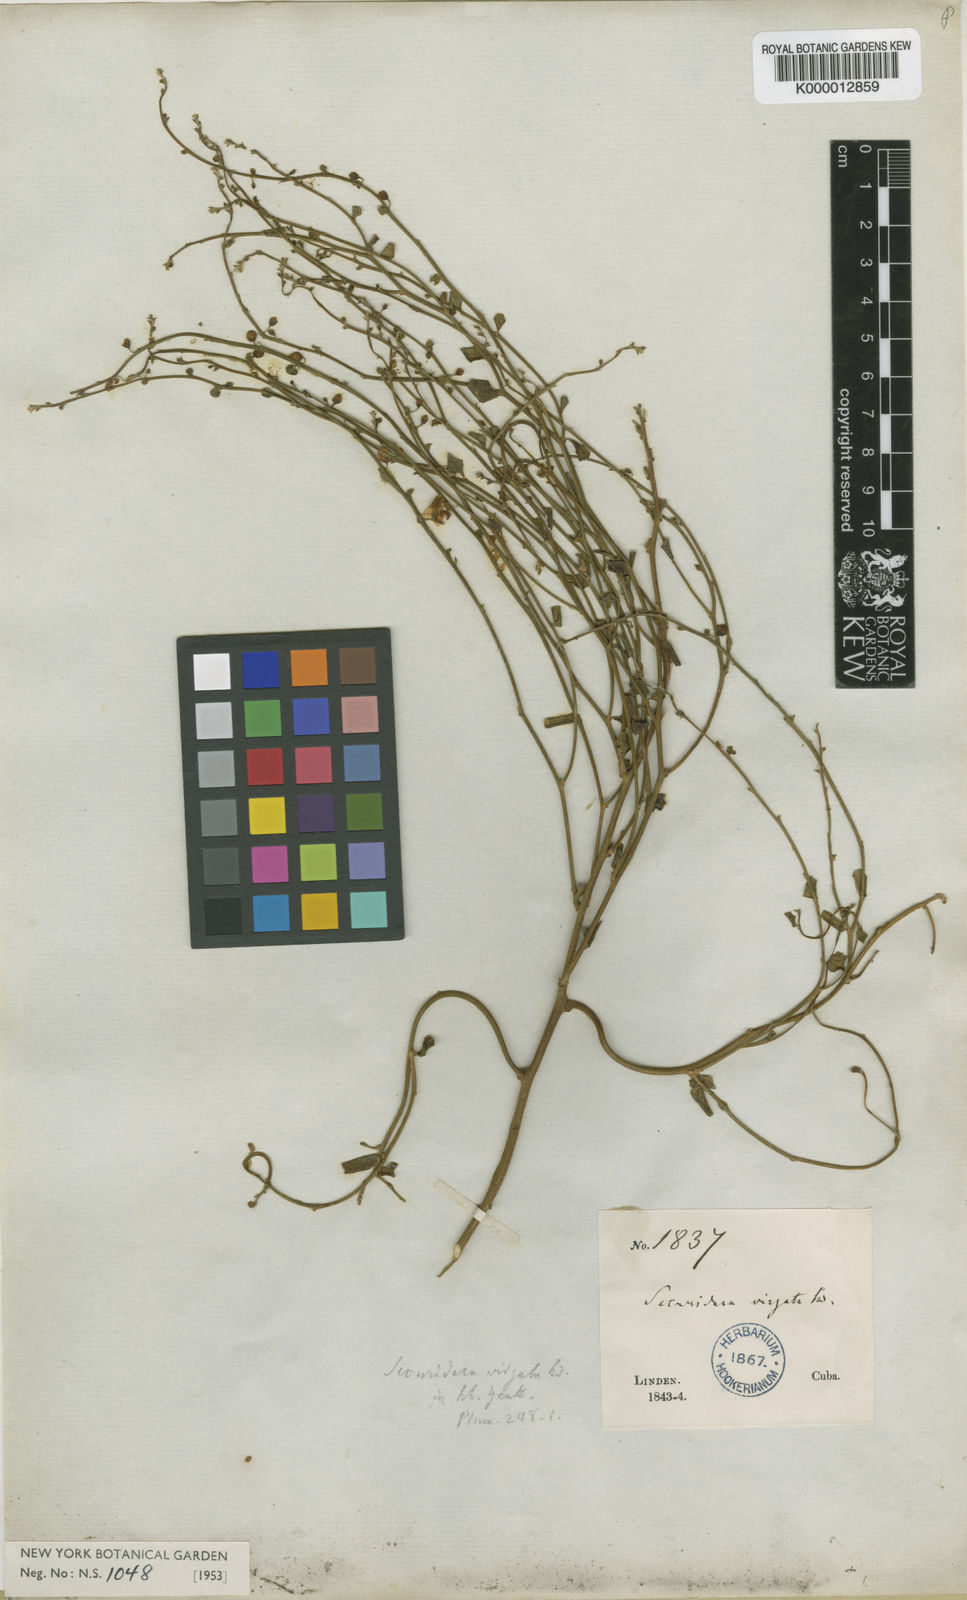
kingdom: Plantae
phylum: Tracheophyta
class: Magnoliopsida
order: Fabales
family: Polygalaceae
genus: Securidaca
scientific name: Securidaca virgata
